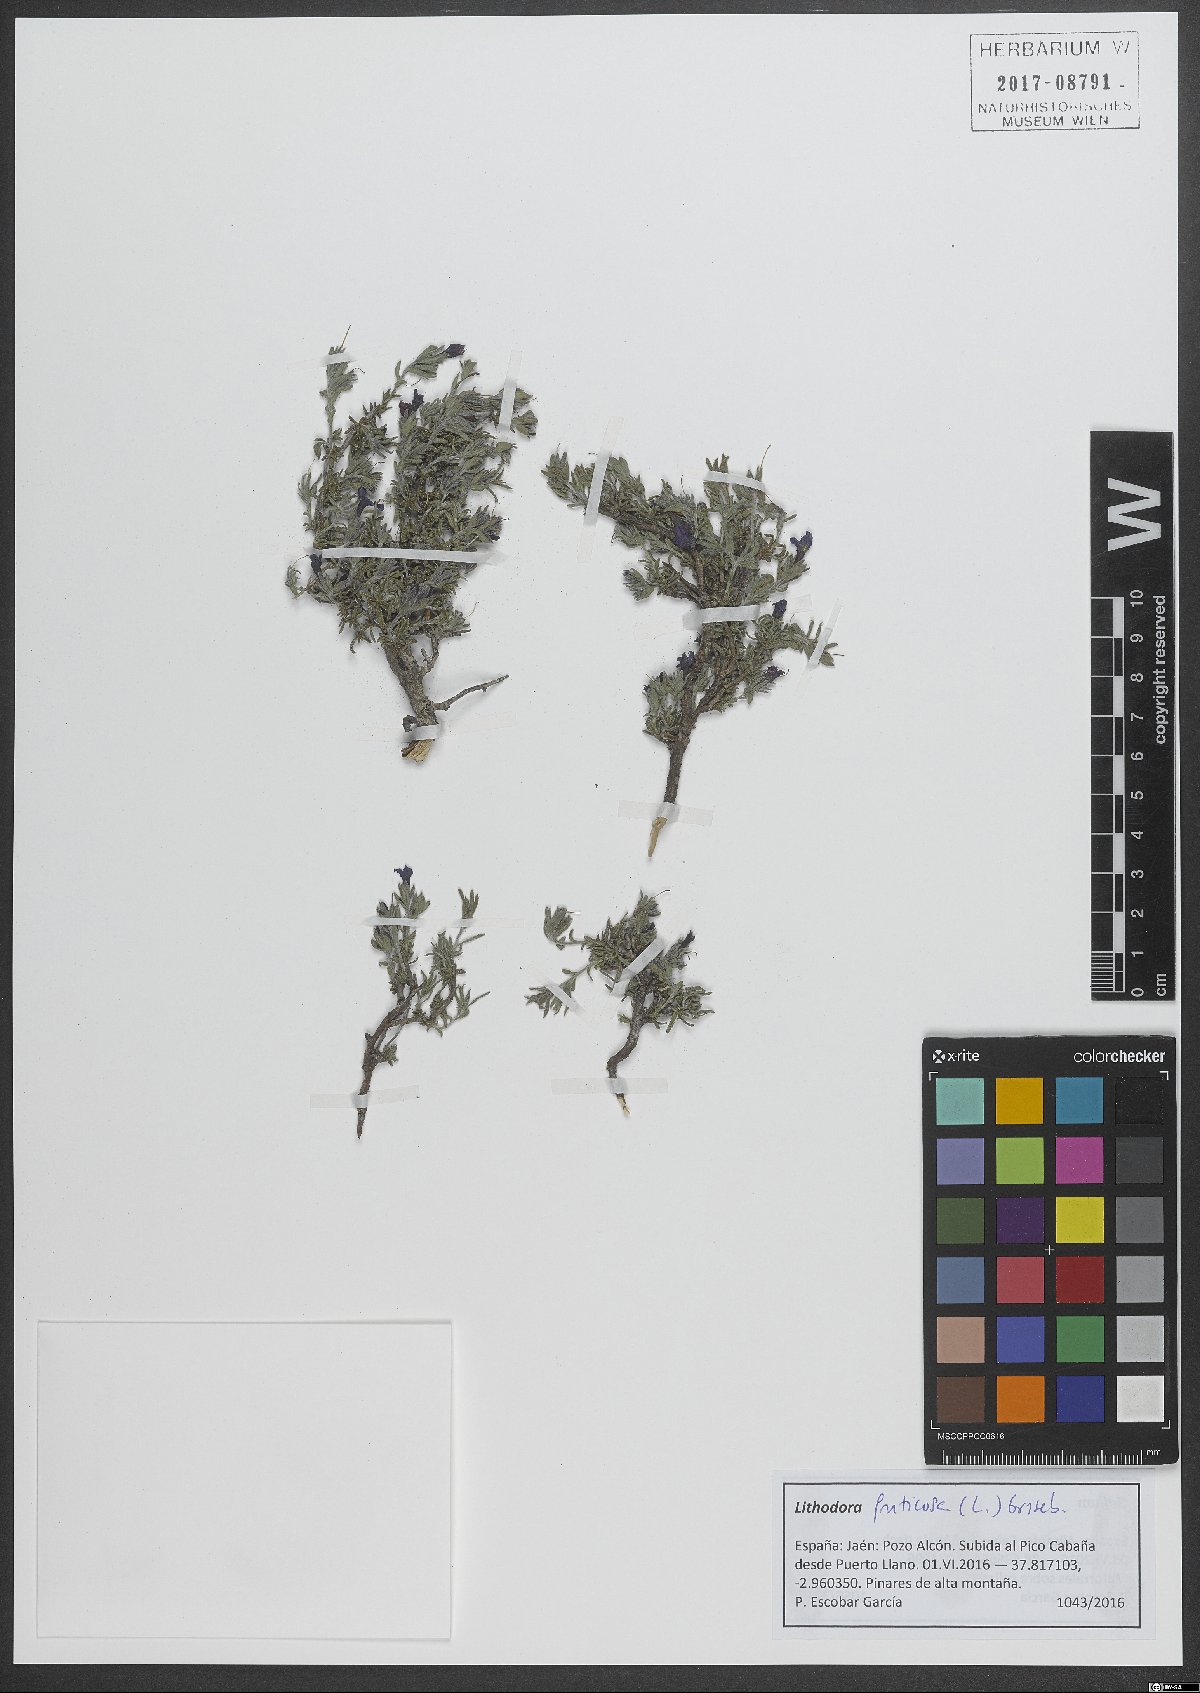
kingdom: Plantae
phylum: Tracheophyta
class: Magnoliopsida
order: Boraginales
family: Boraginaceae
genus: Lithodora
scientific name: Lithodora fruticosa
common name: Shrubby gromwell
